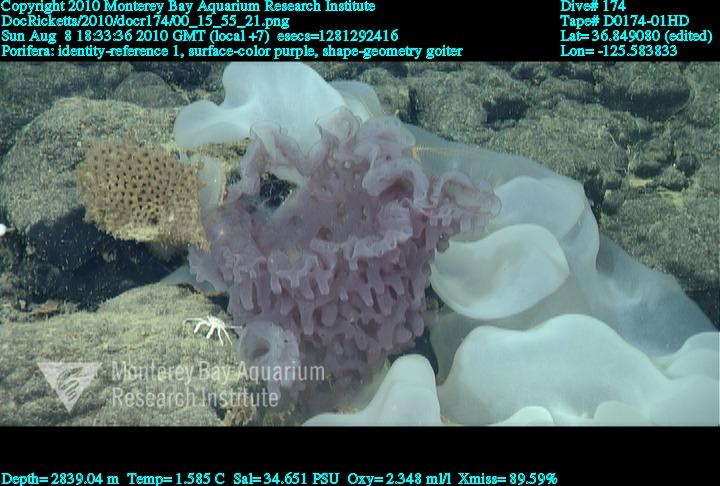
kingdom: Animalia
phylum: Porifera
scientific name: Porifera
